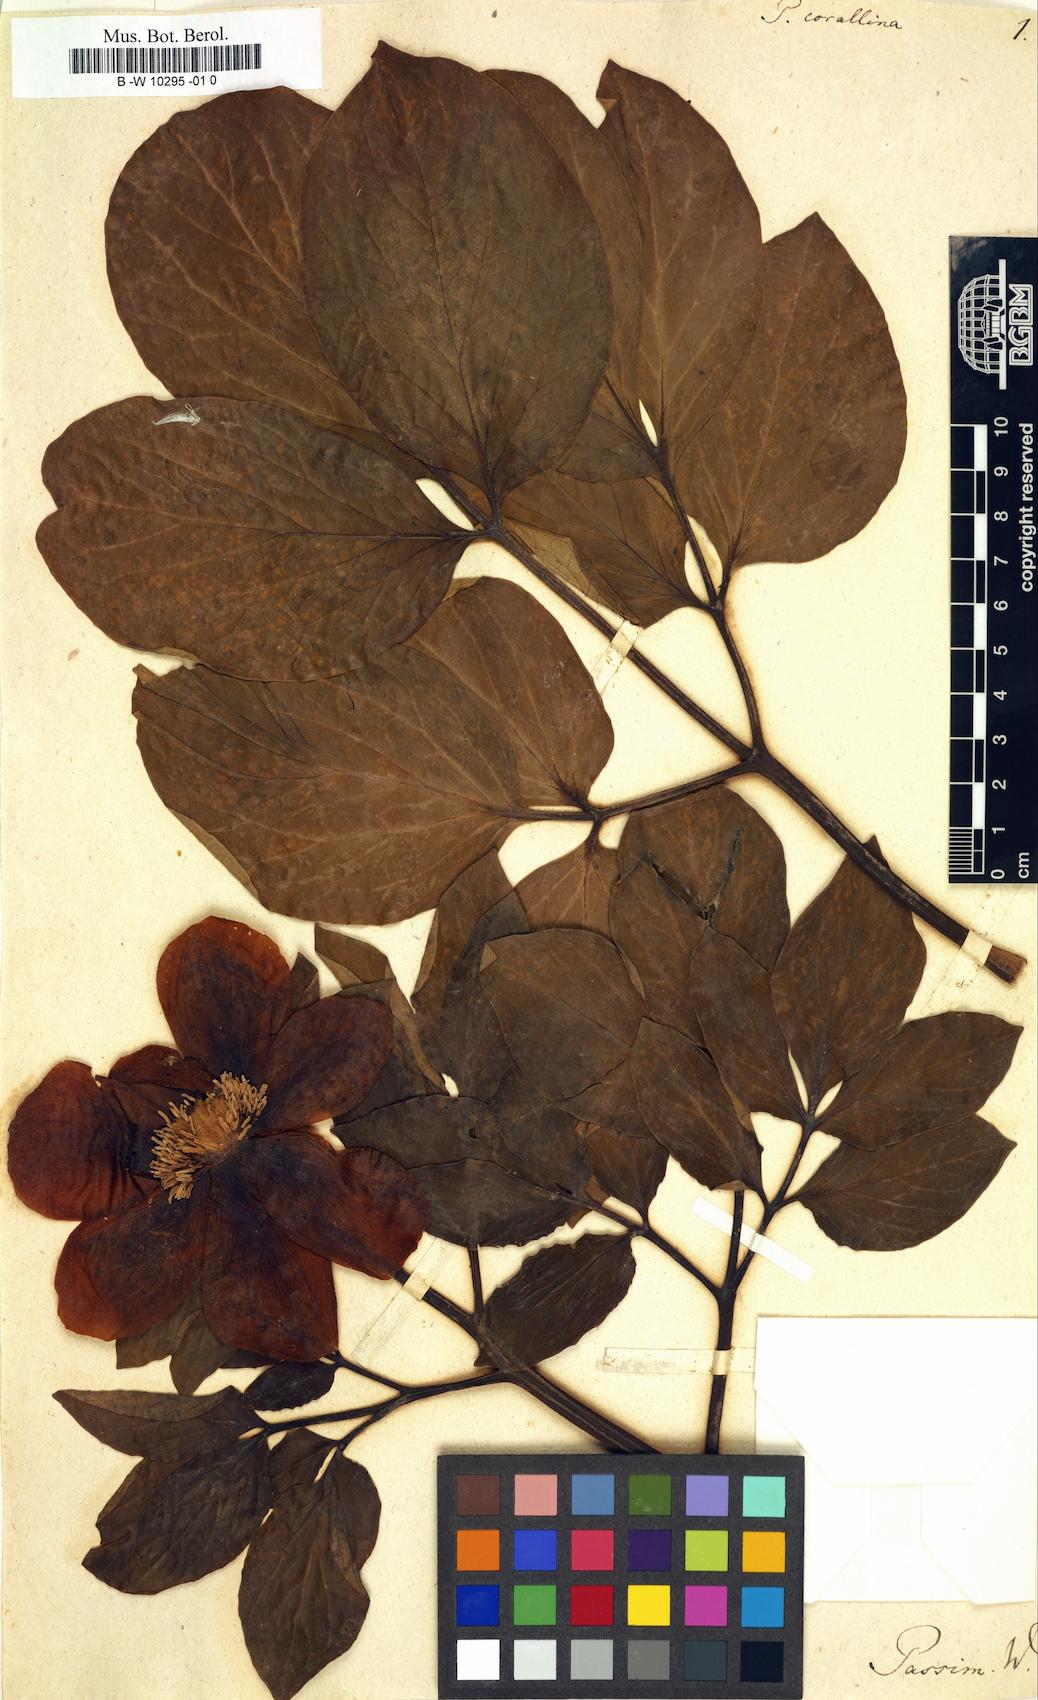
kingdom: Plantae
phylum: Tracheophyta
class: Magnoliopsida
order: Saxifragales
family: Paeoniaceae
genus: Paeonia
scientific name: Paeonia mascula
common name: Peony
